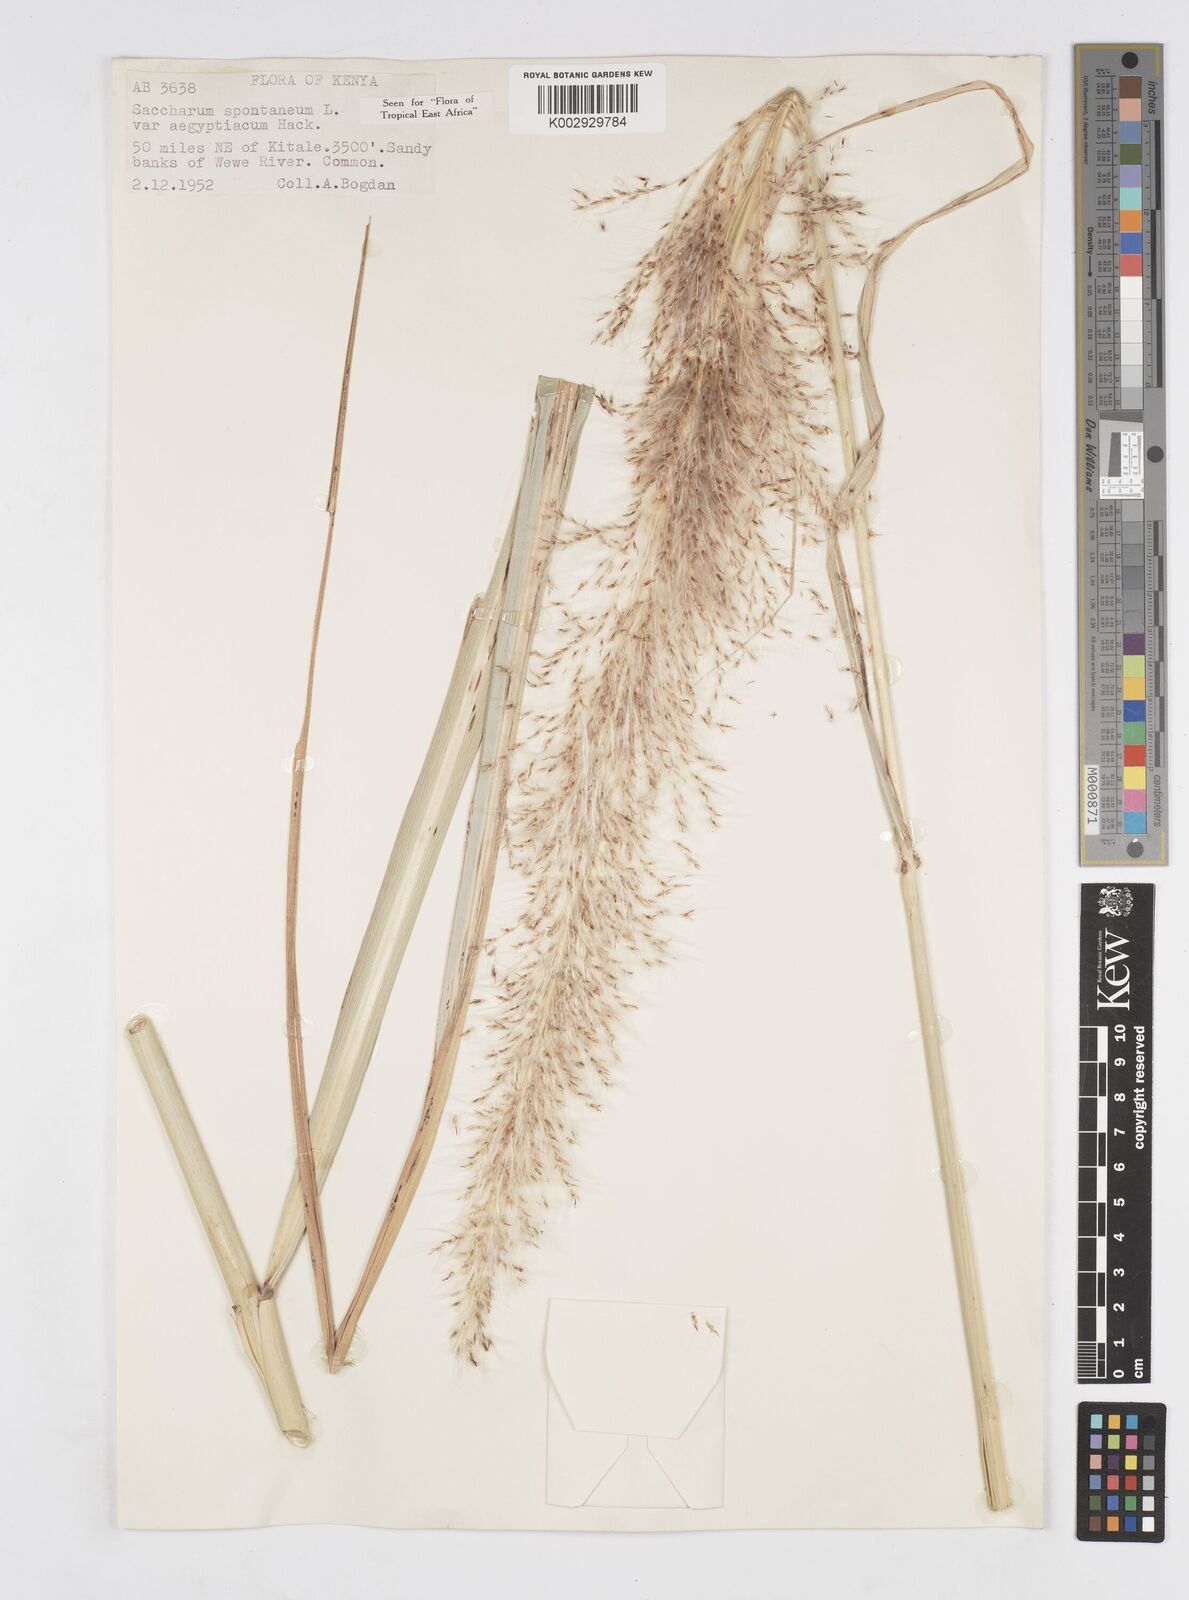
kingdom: Plantae
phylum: Tracheophyta
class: Liliopsida
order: Poales
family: Poaceae
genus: Saccharum
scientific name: Saccharum spontaneum
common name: Wild sugarcane
